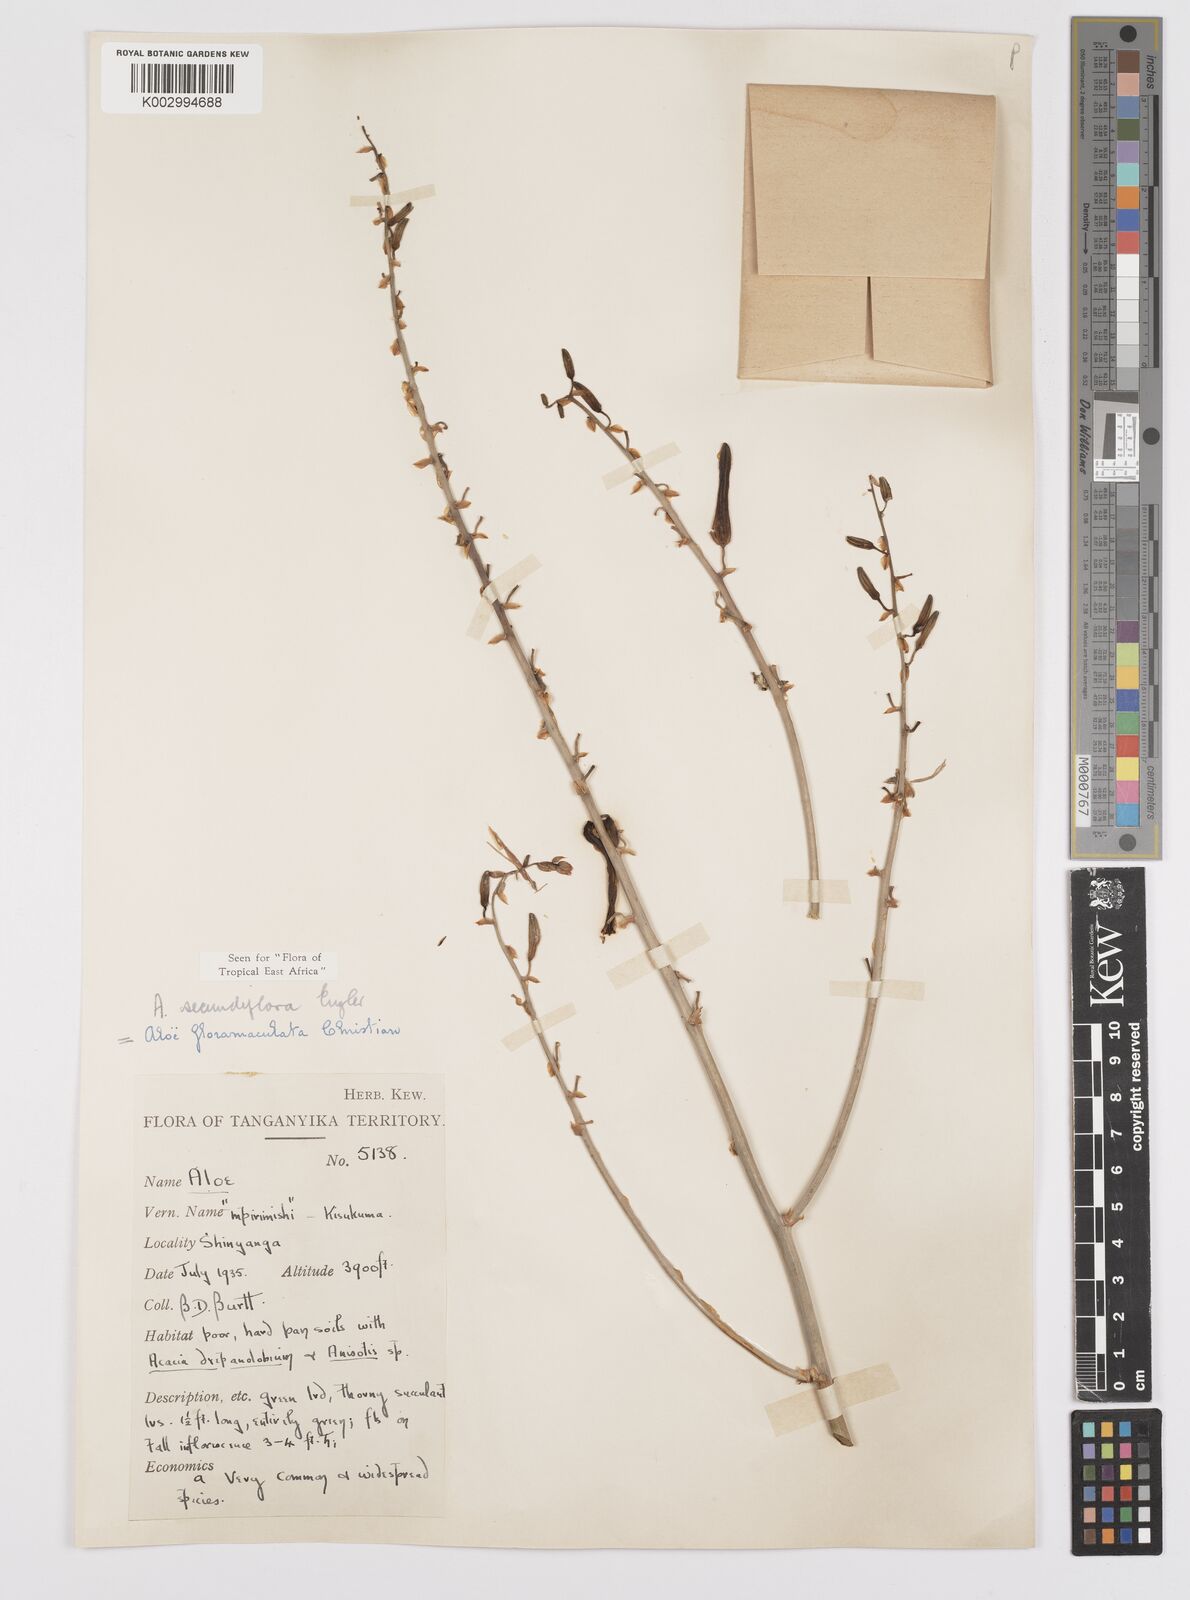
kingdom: Plantae
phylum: Tracheophyta
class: Liliopsida
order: Asparagales
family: Asphodelaceae
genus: Aloe
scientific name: Aloe secundiflora
